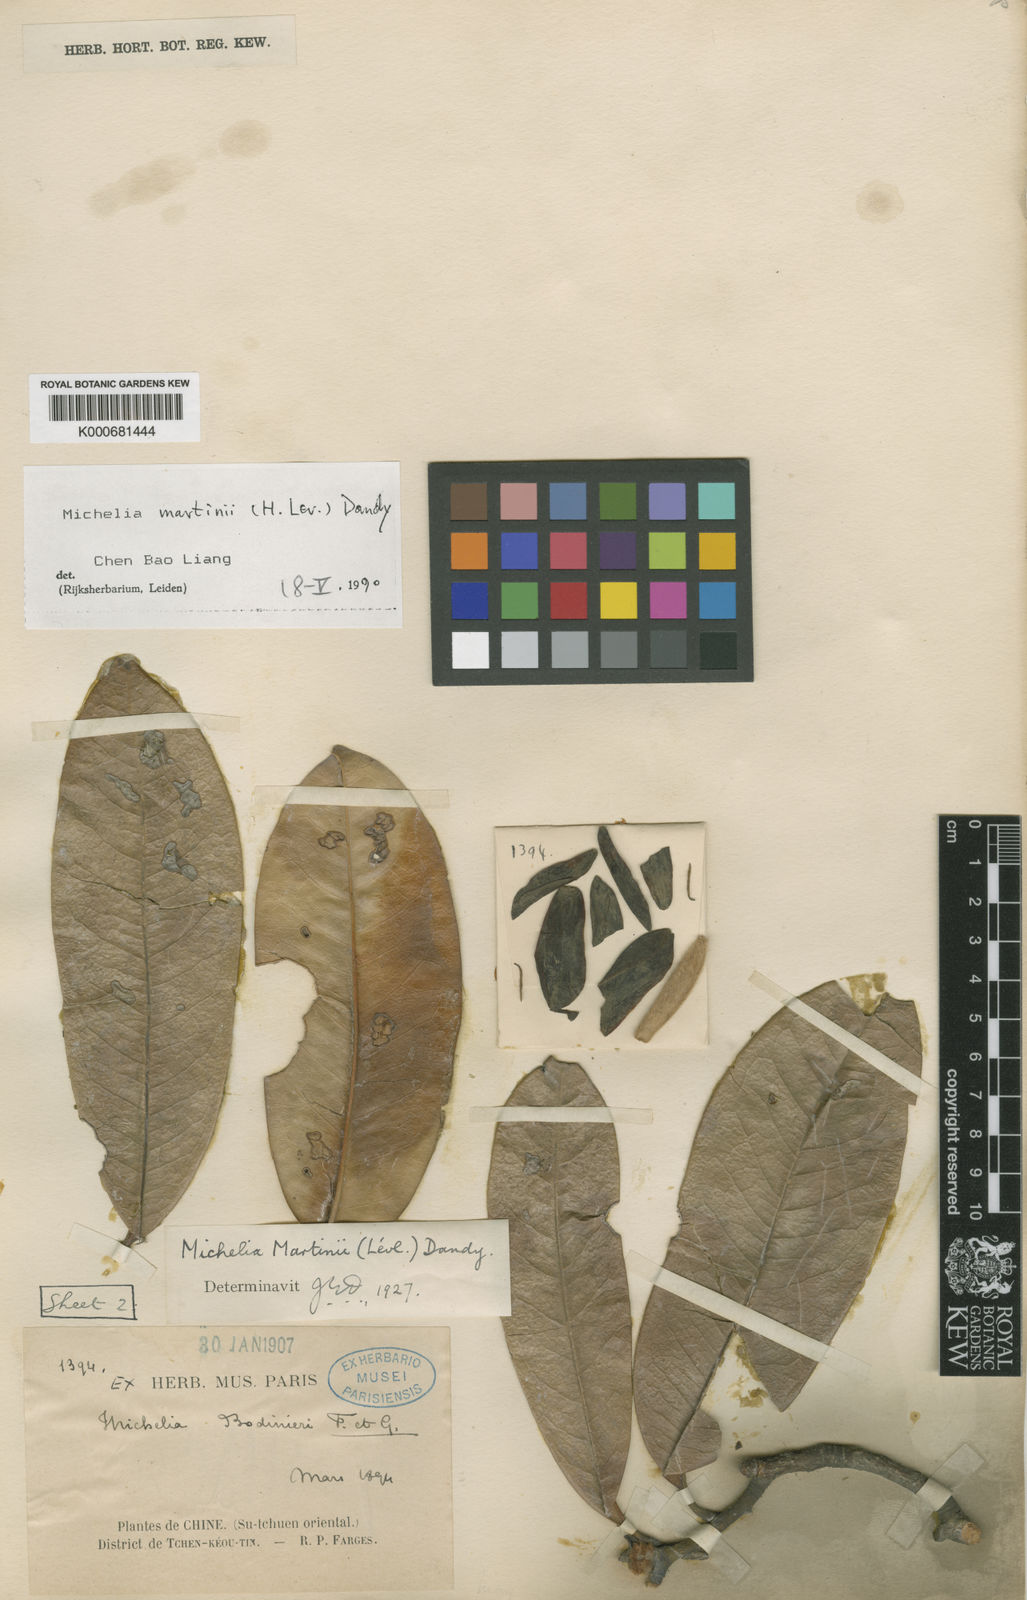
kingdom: Plantae
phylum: Tracheophyta
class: Magnoliopsida
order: Magnoliales
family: Magnoliaceae
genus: Magnolia
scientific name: Magnolia
